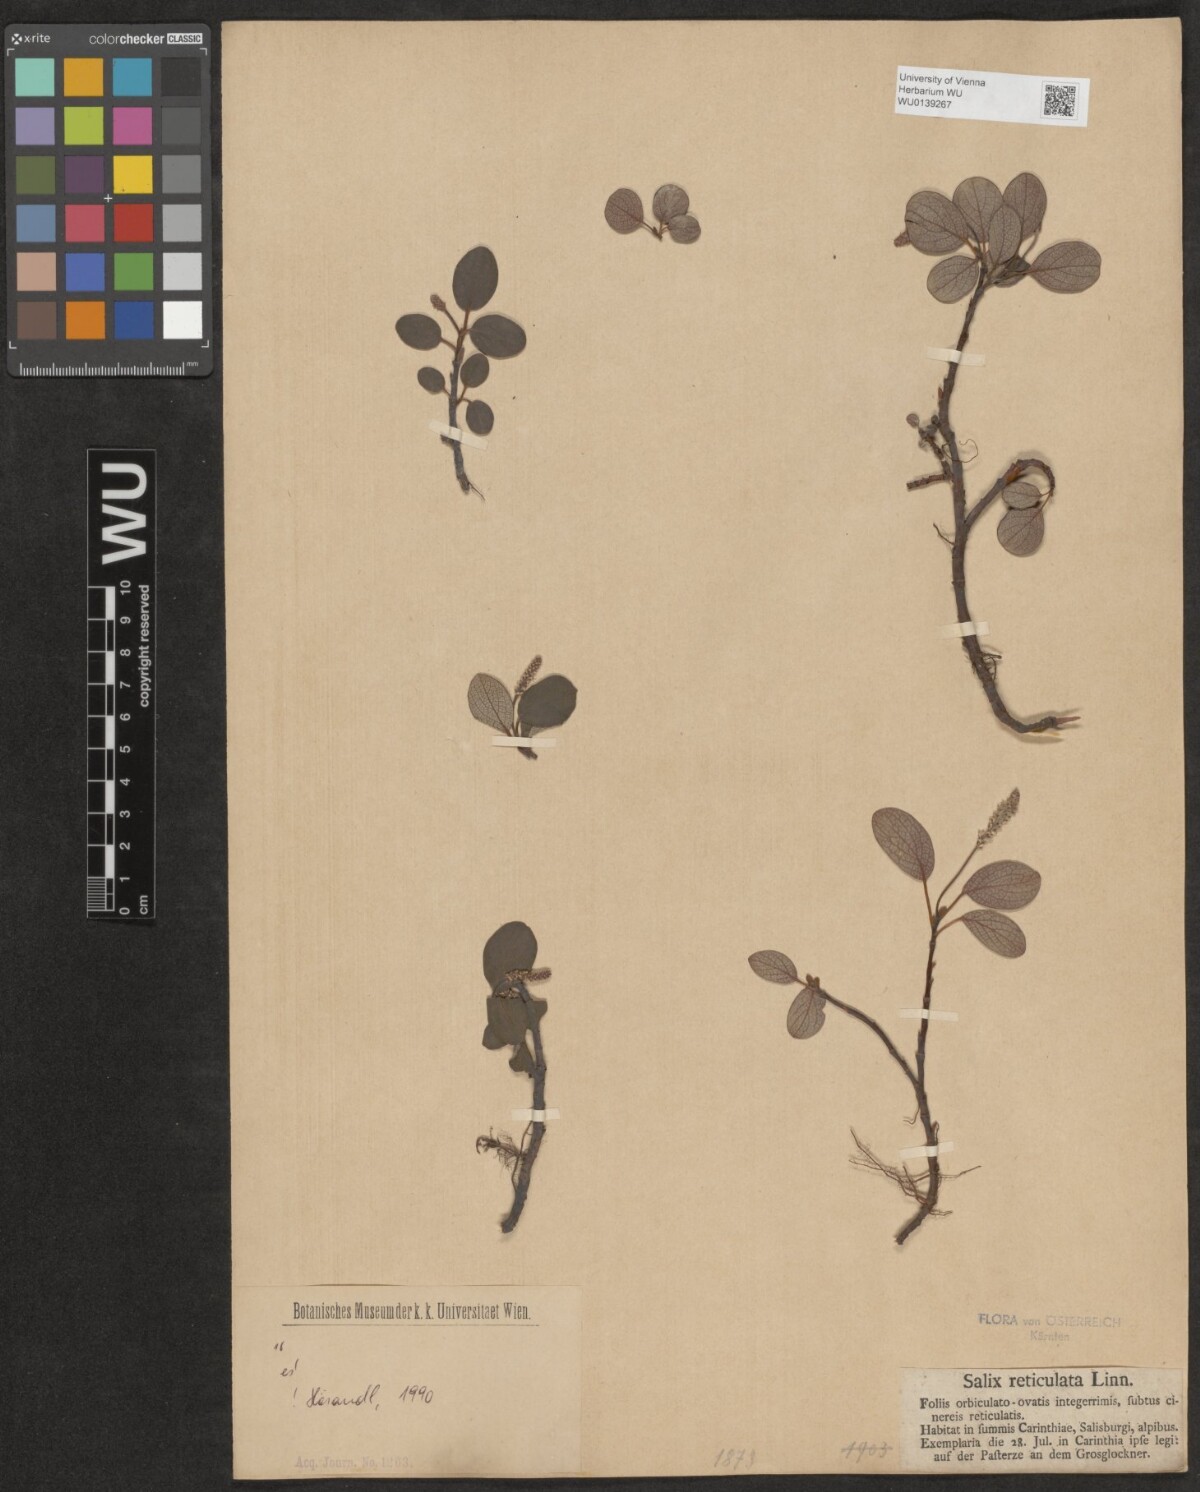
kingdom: Plantae
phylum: Tracheophyta
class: Magnoliopsida
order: Malpighiales
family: Salicaceae
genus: Salix
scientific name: Salix reticulata
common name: Net-leaved willow
